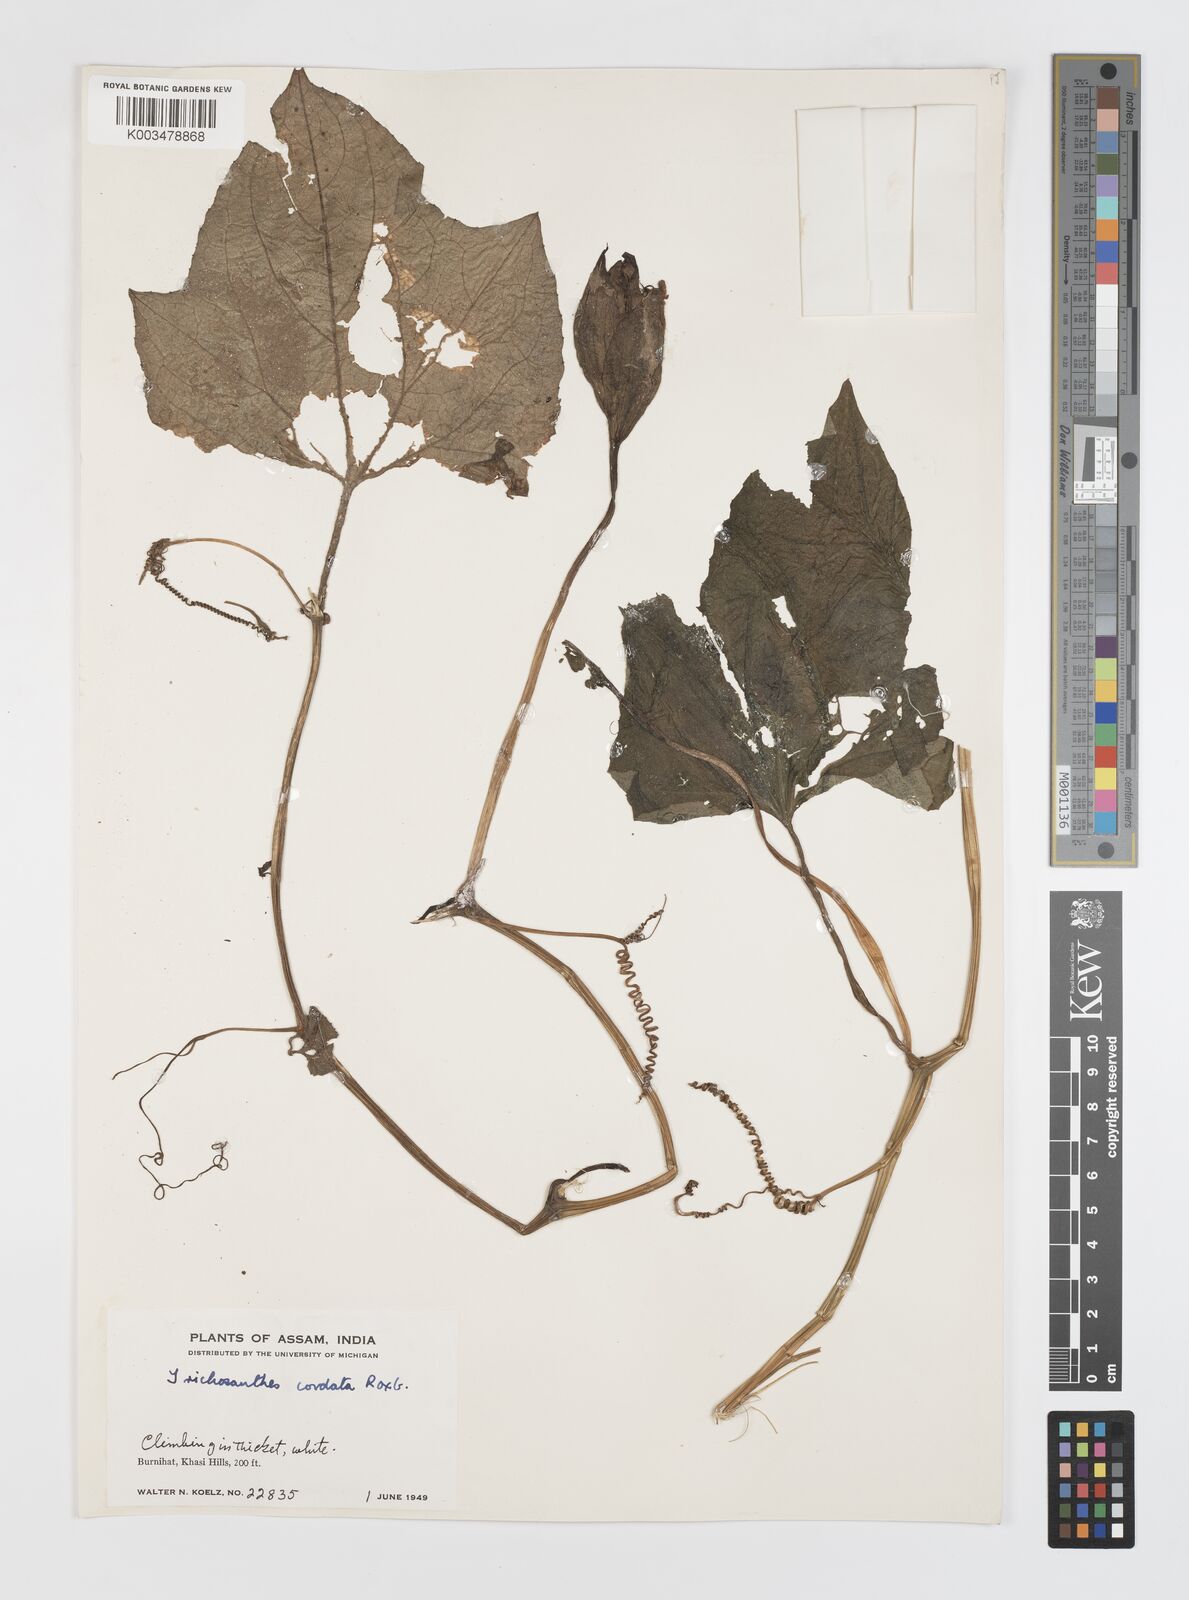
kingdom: Plantae
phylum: Tracheophyta
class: Magnoliopsida
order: Cucurbitales
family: Cucurbitaceae
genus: Trichosanthes
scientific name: Trichosanthes cordata
